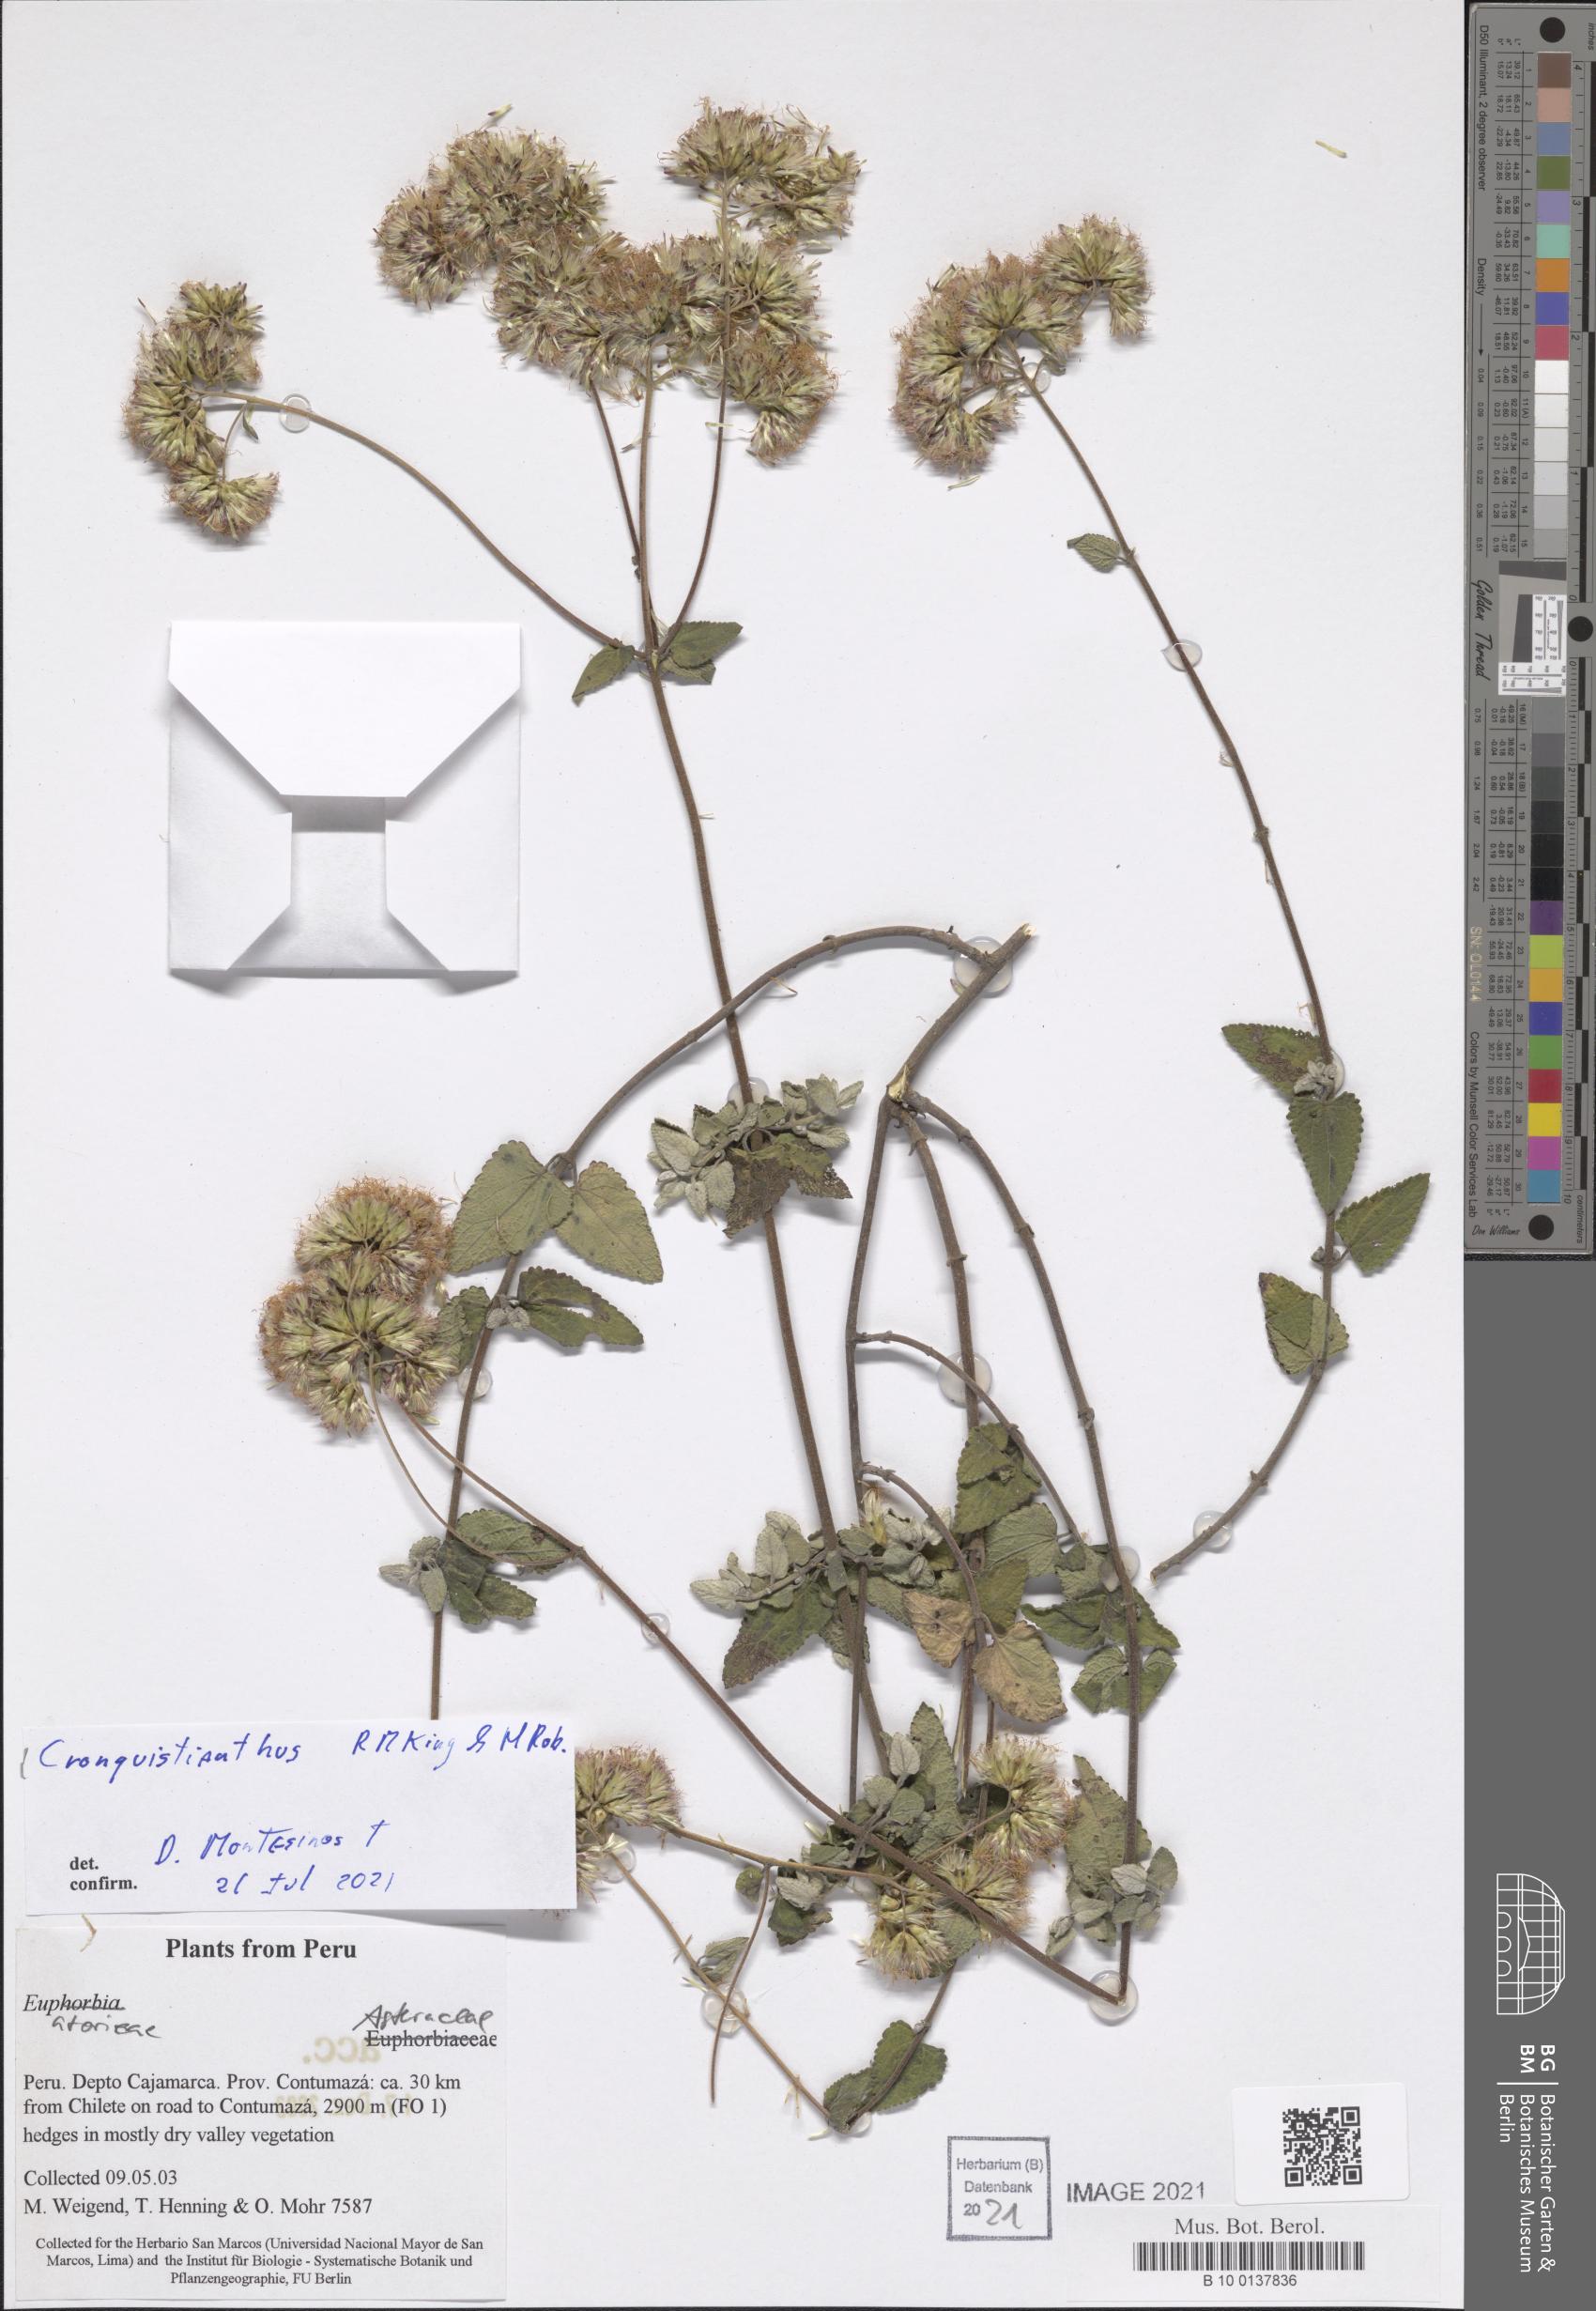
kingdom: Plantae
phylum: Tracheophyta
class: Magnoliopsida
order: Asterales
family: Asteraceae
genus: Cronquistianthus
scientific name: Cronquistianthus
